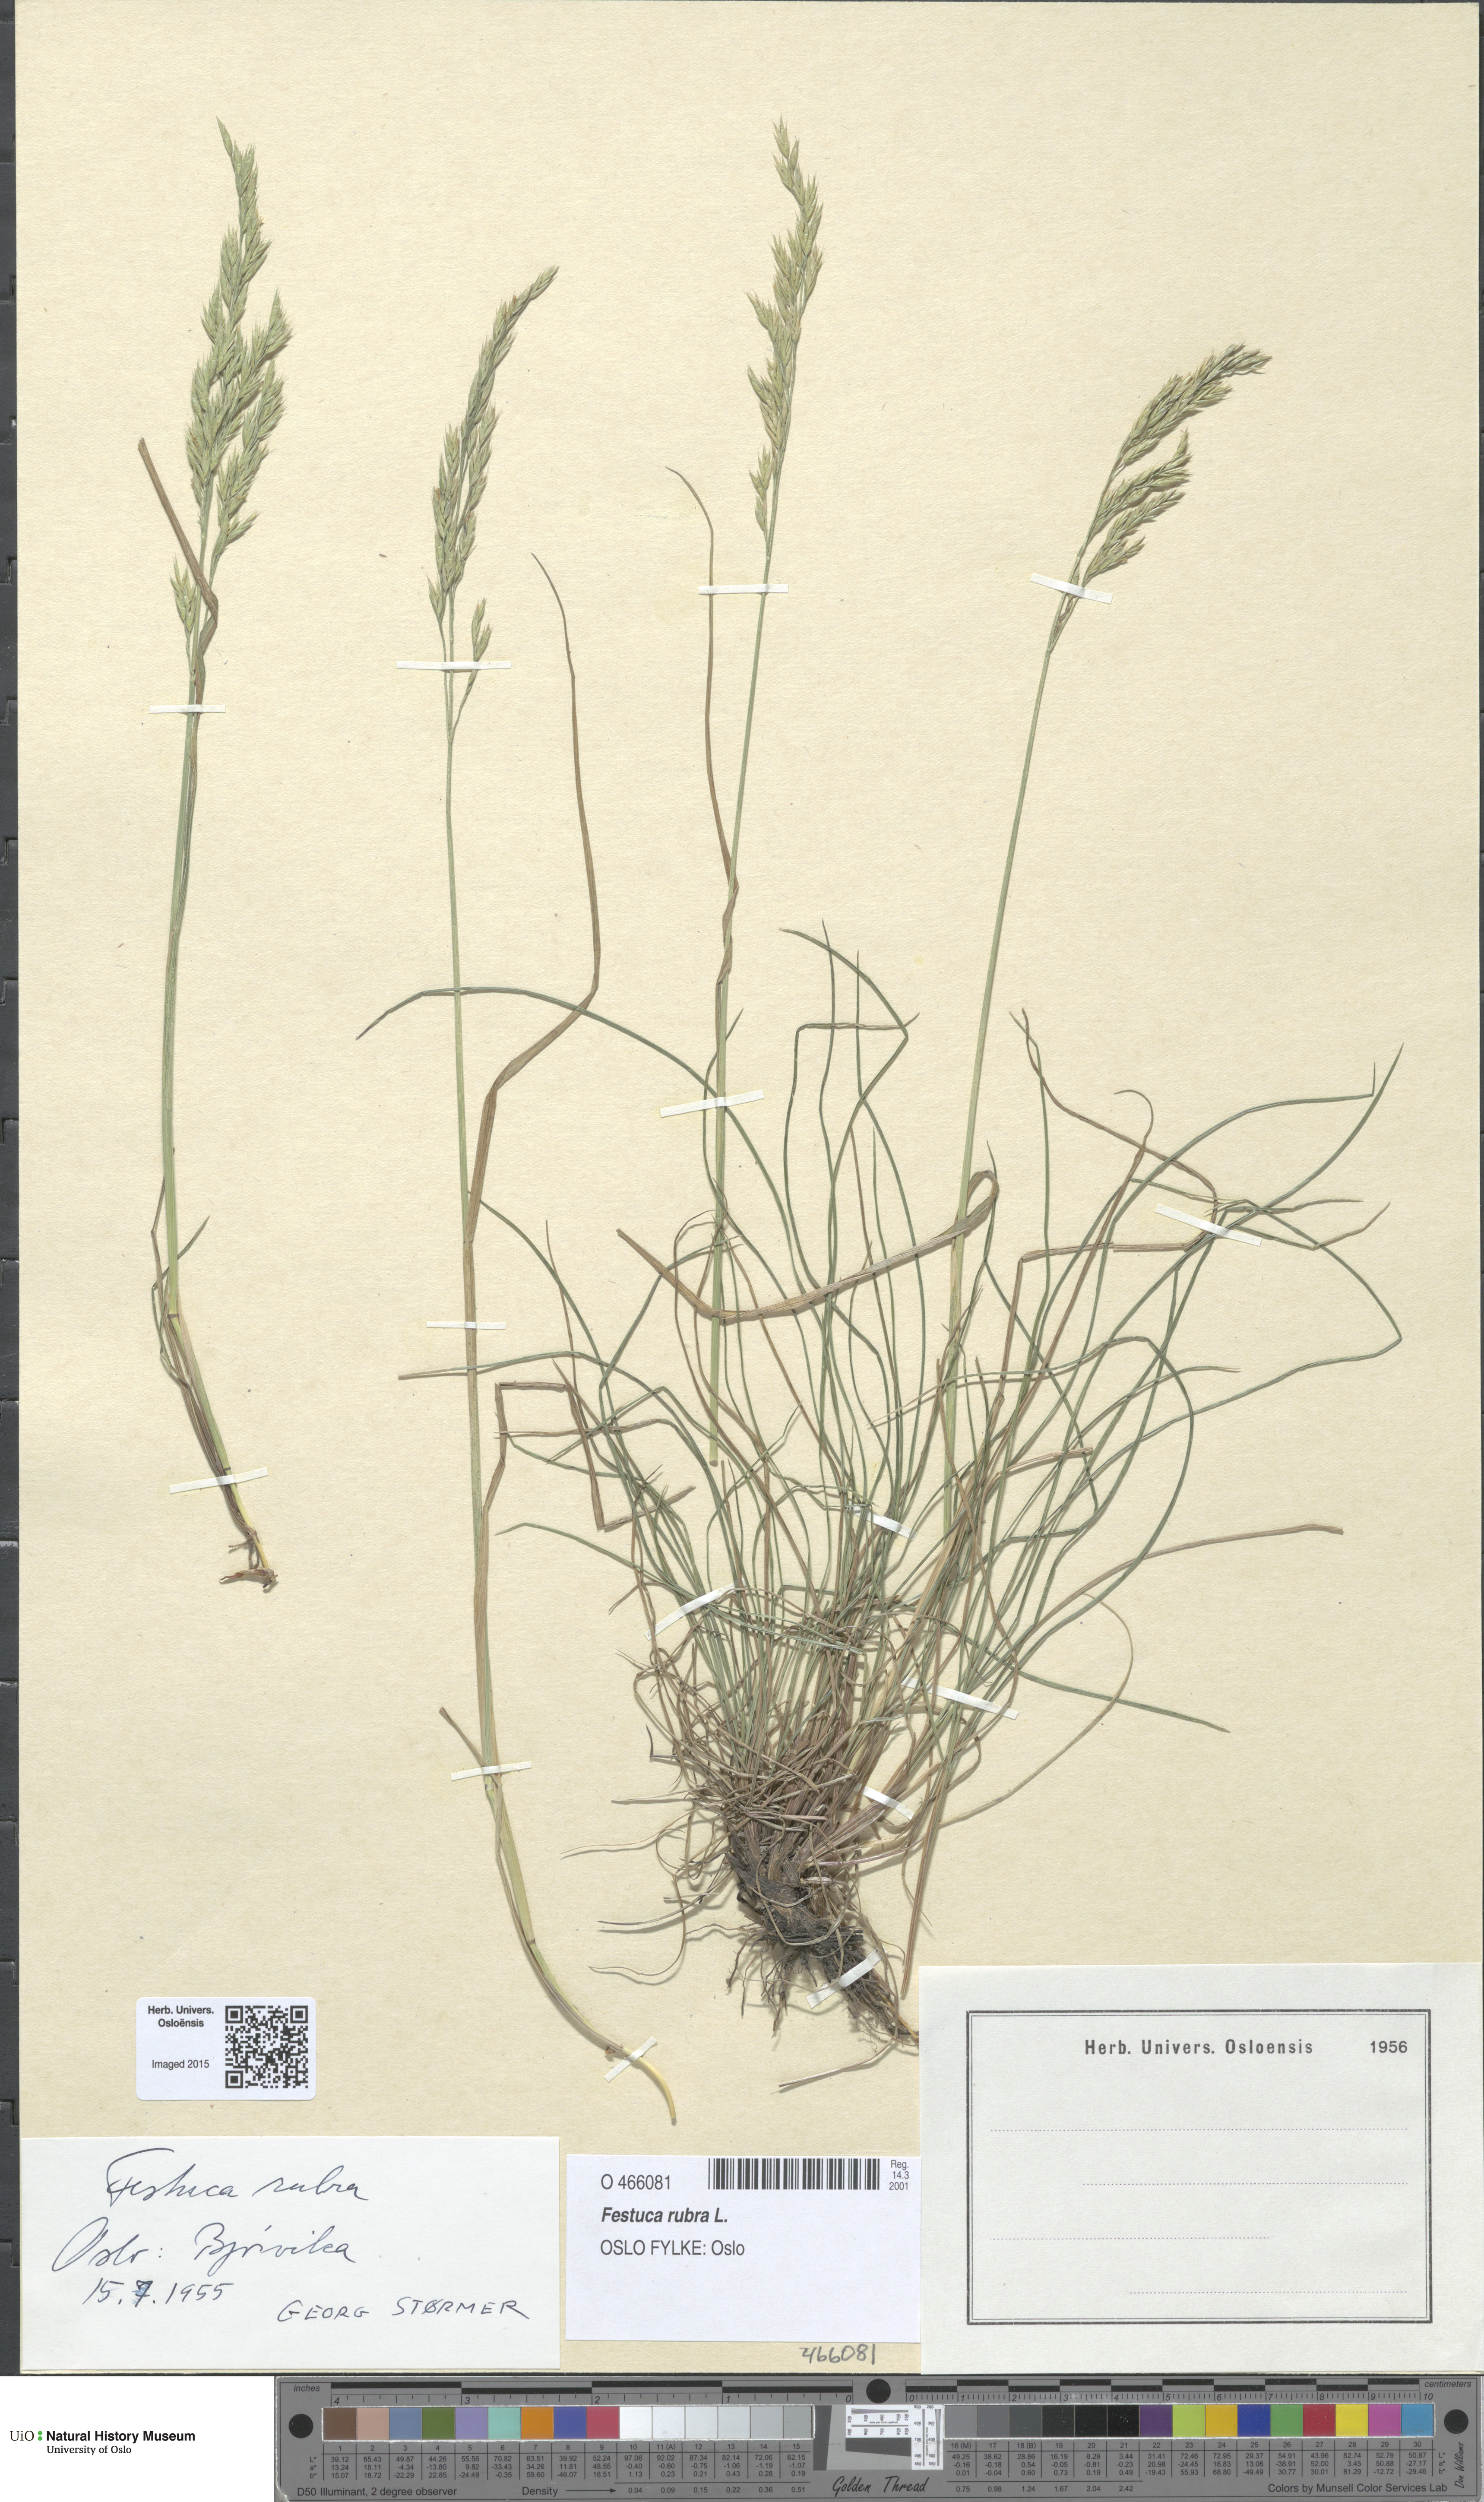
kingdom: Plantae
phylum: Tracheophyta
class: Liliopsida
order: Poales
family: Poaceae
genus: Festuca
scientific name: Festuca rubra
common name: Red fescue
